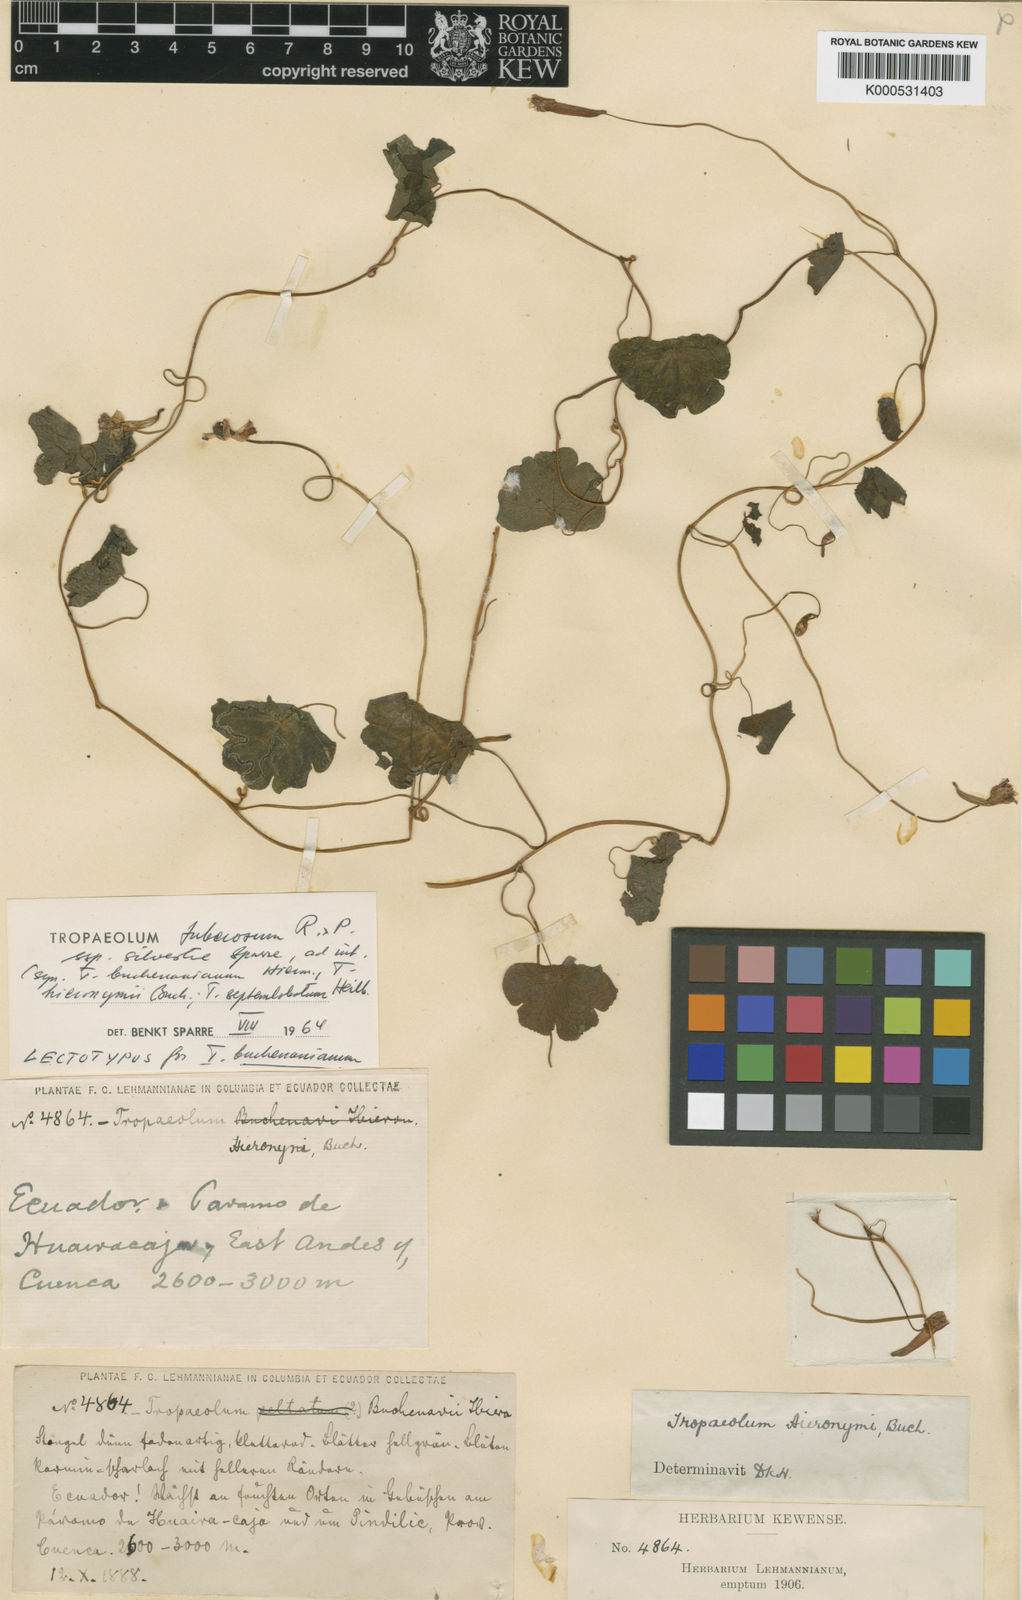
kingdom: Plantae
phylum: Tracheophyta
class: Magnoliopsida
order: Brassicales
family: Tropaeolaceae
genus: Tropaeolum
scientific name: Tropaeolum tuberosum
